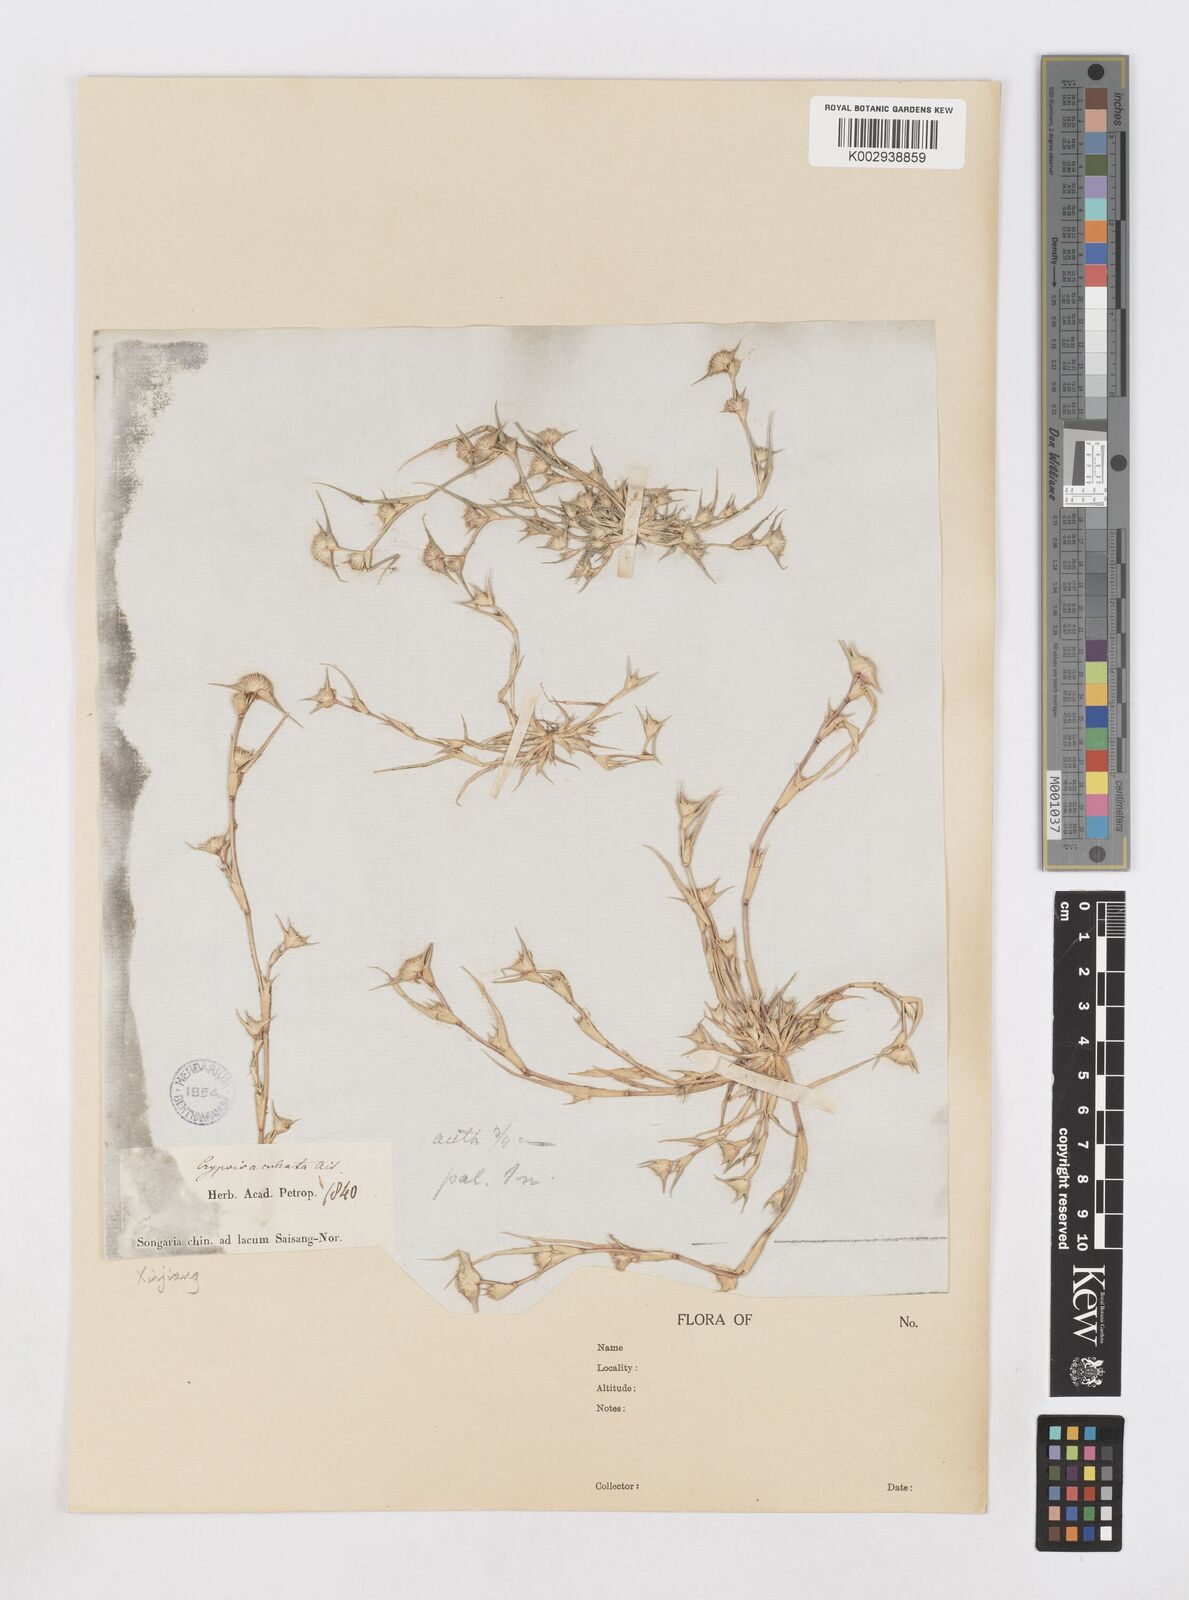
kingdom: Plantae
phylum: Tracheophyta
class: Liliopsida
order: Poales
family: Poaceae
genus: Sporobolus
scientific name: Sporobolus aculeatus
